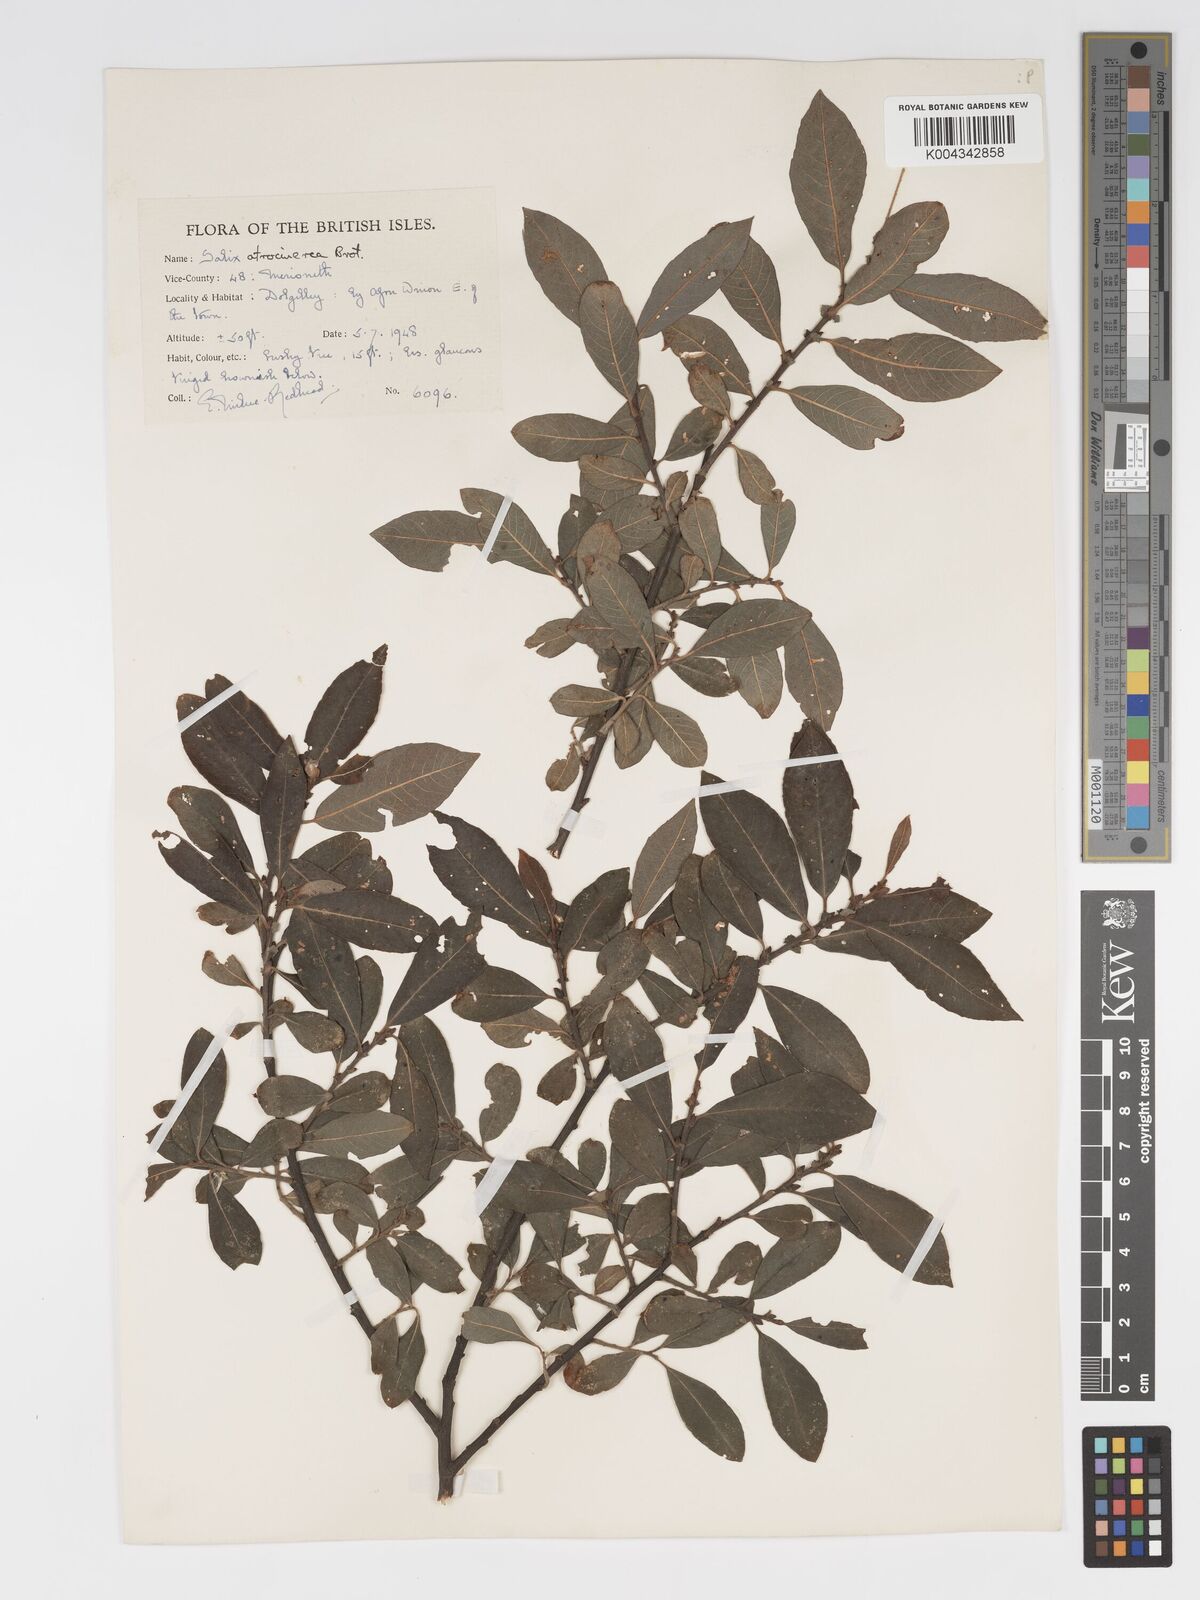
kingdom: Plantae
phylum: Tracheophyta
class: Magnoliopsida
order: Malpighiales
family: Salicaceae
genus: Salix
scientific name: Salix atrocinerea
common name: Rusty willow
